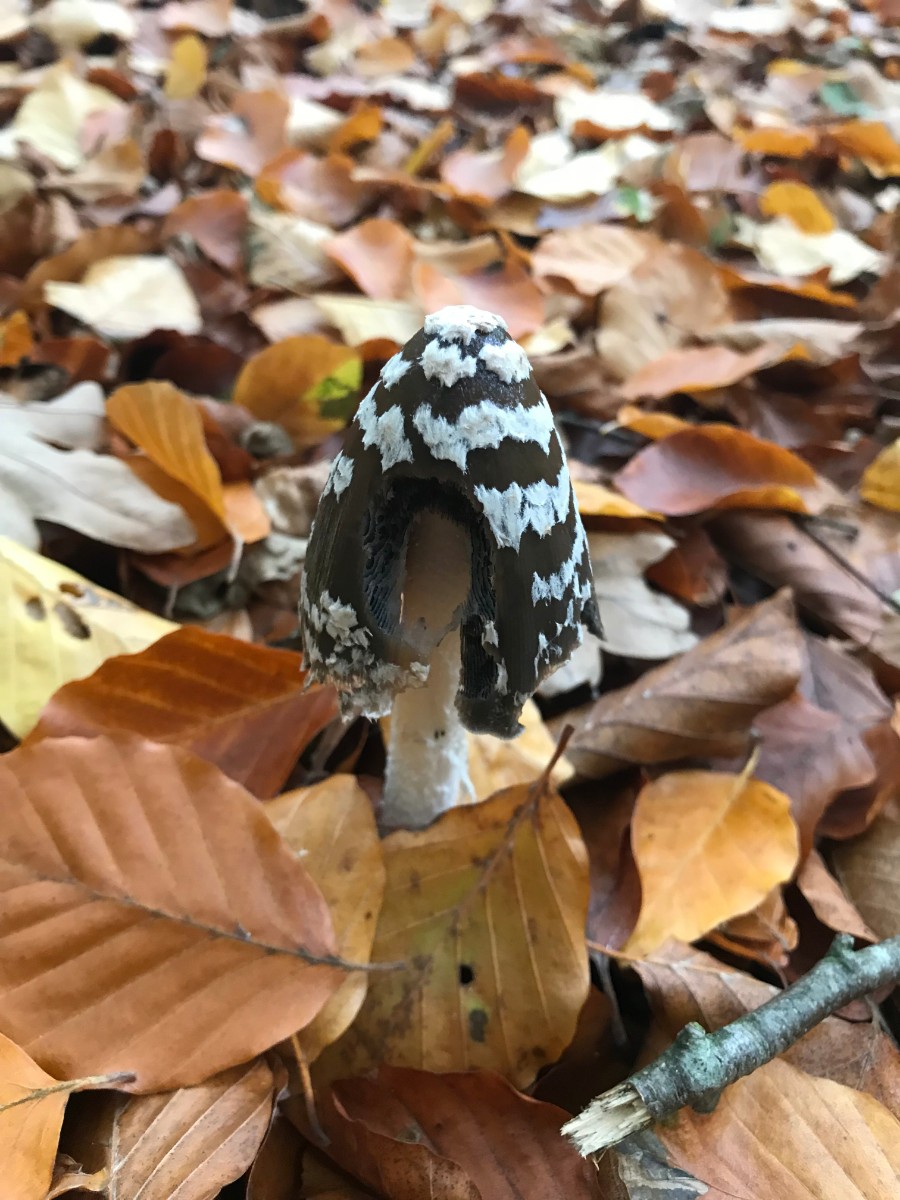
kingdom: Fungi
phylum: Basidiomycota
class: Agaricomycetes
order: Agaricales
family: Psathyrellaceae
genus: Coprinopsis
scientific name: Coprinopsis picacea
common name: skade-blækhat
